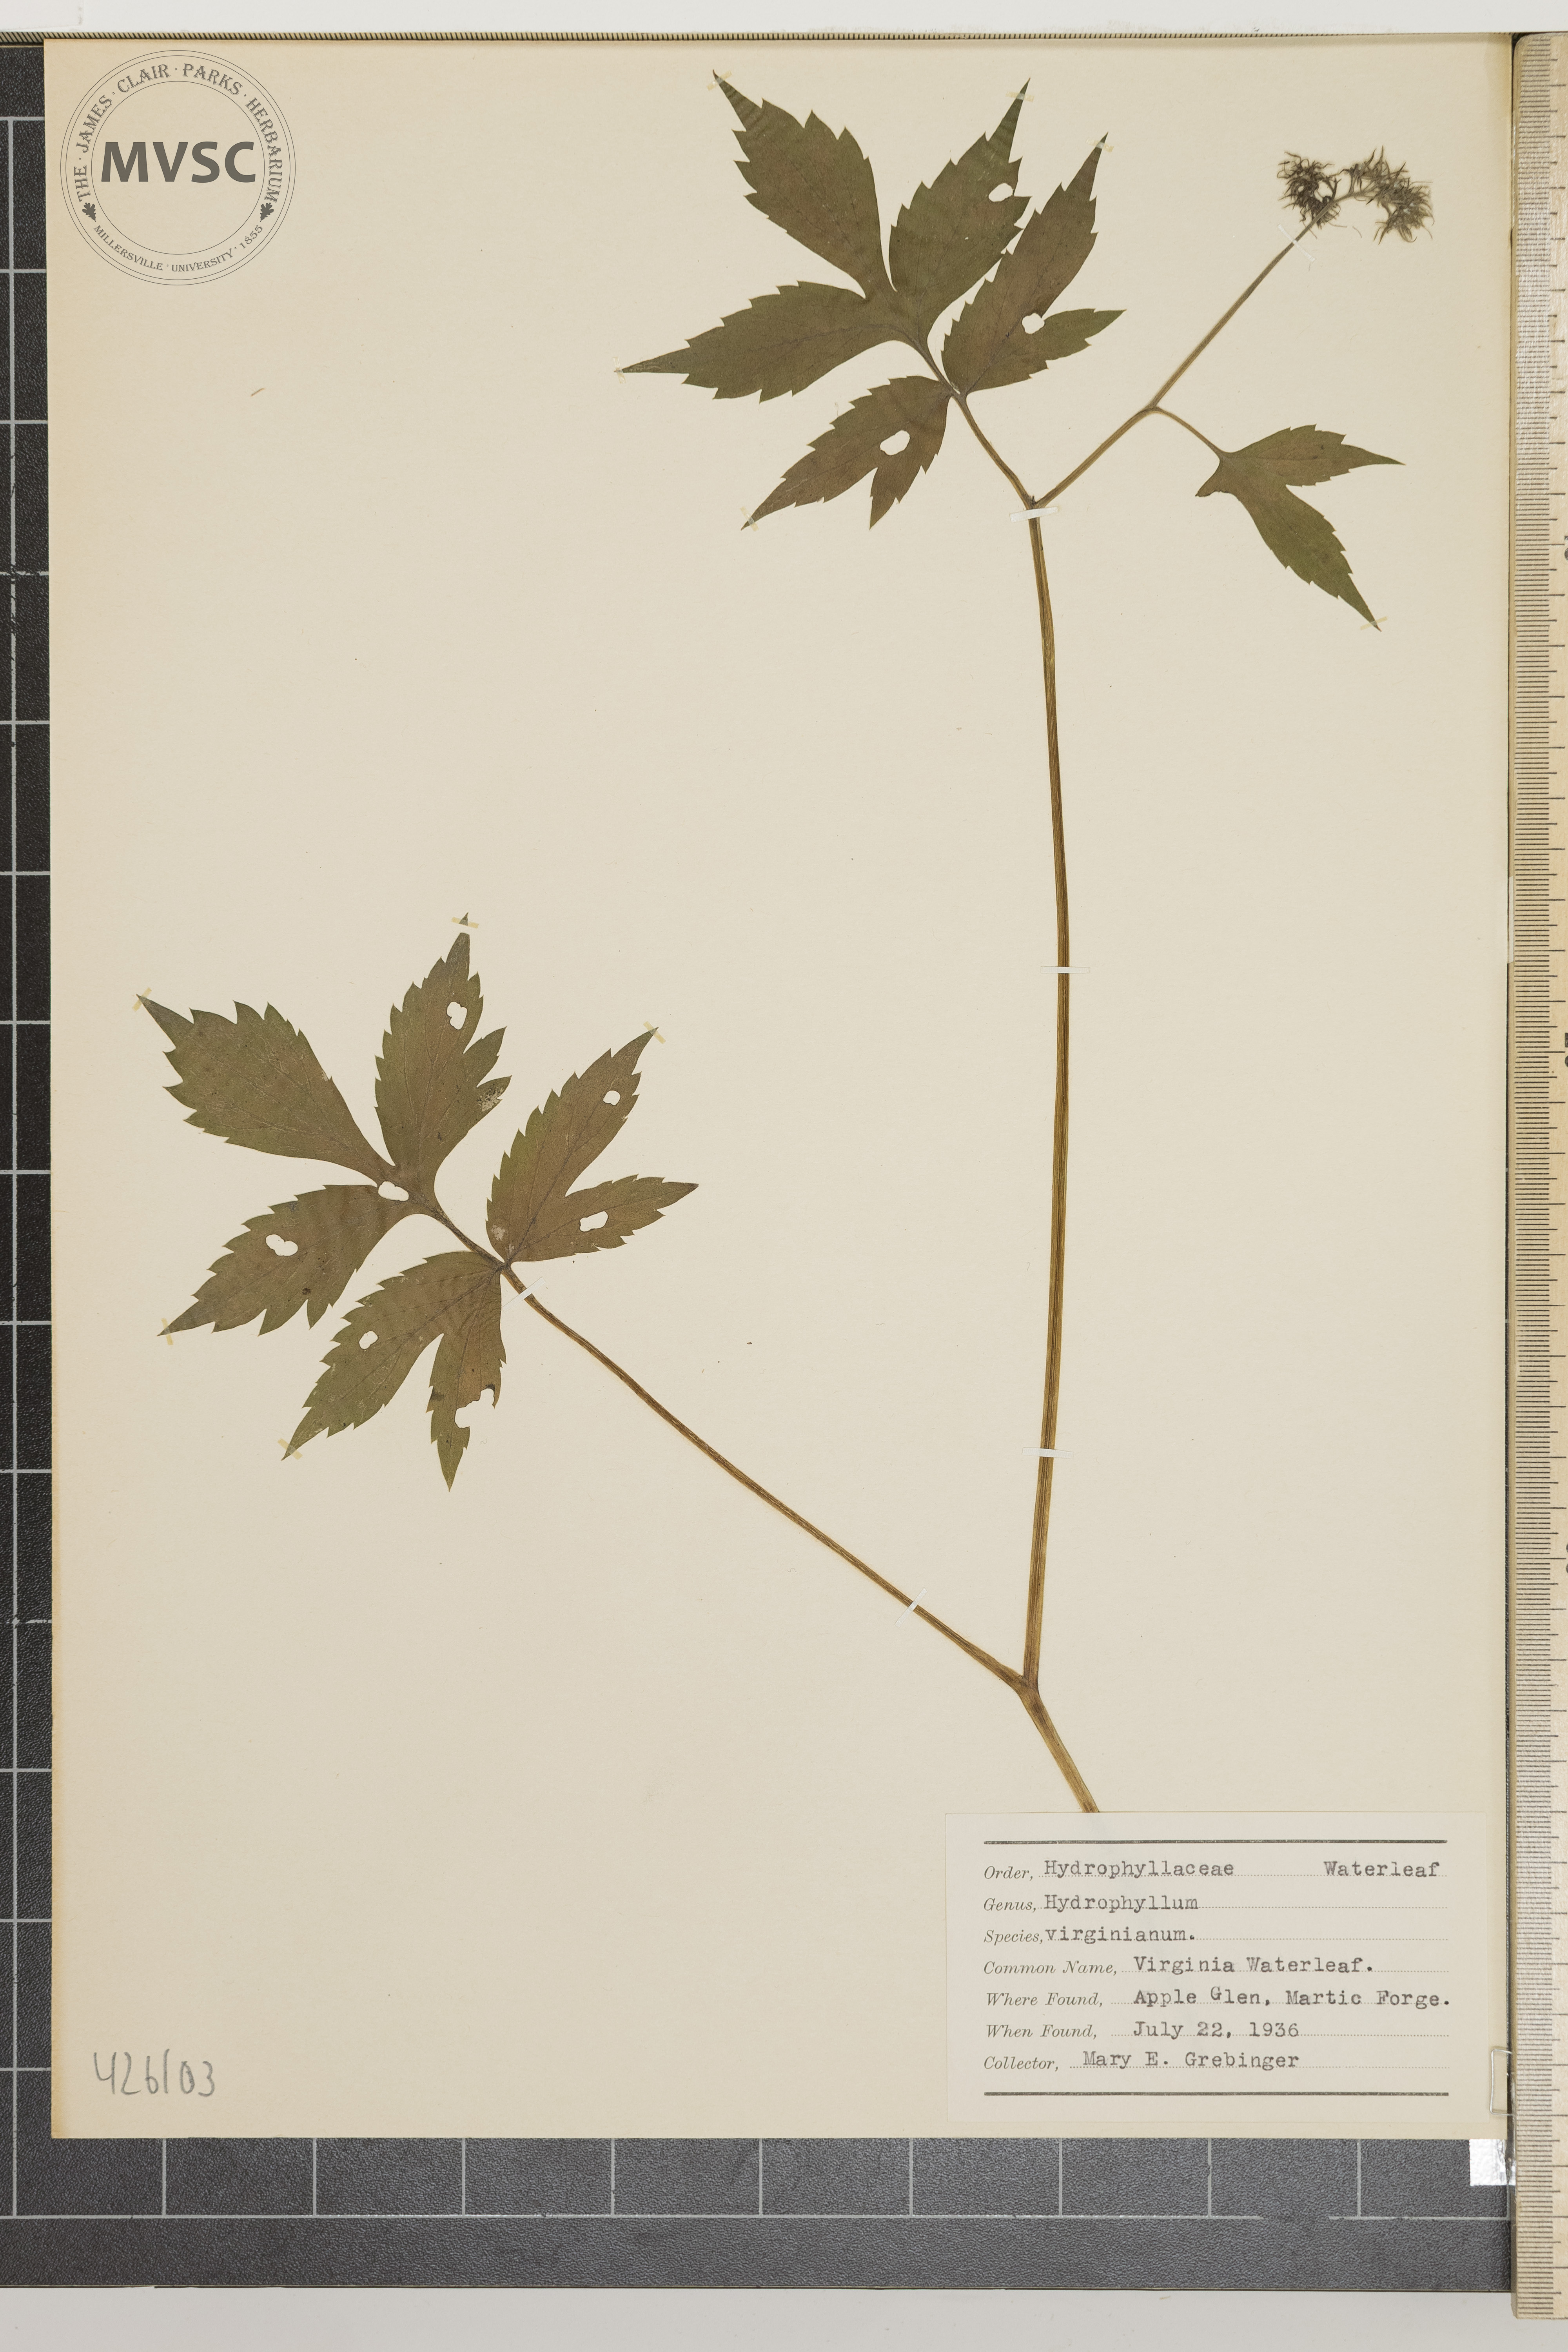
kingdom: Plantae
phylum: Tracheophyta
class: Magnoliopsida
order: Boraginales
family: Hydrophyllaceae
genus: Hydrophyllum
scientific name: Hydrophyllum virginianum
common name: Virginia waterleaf
